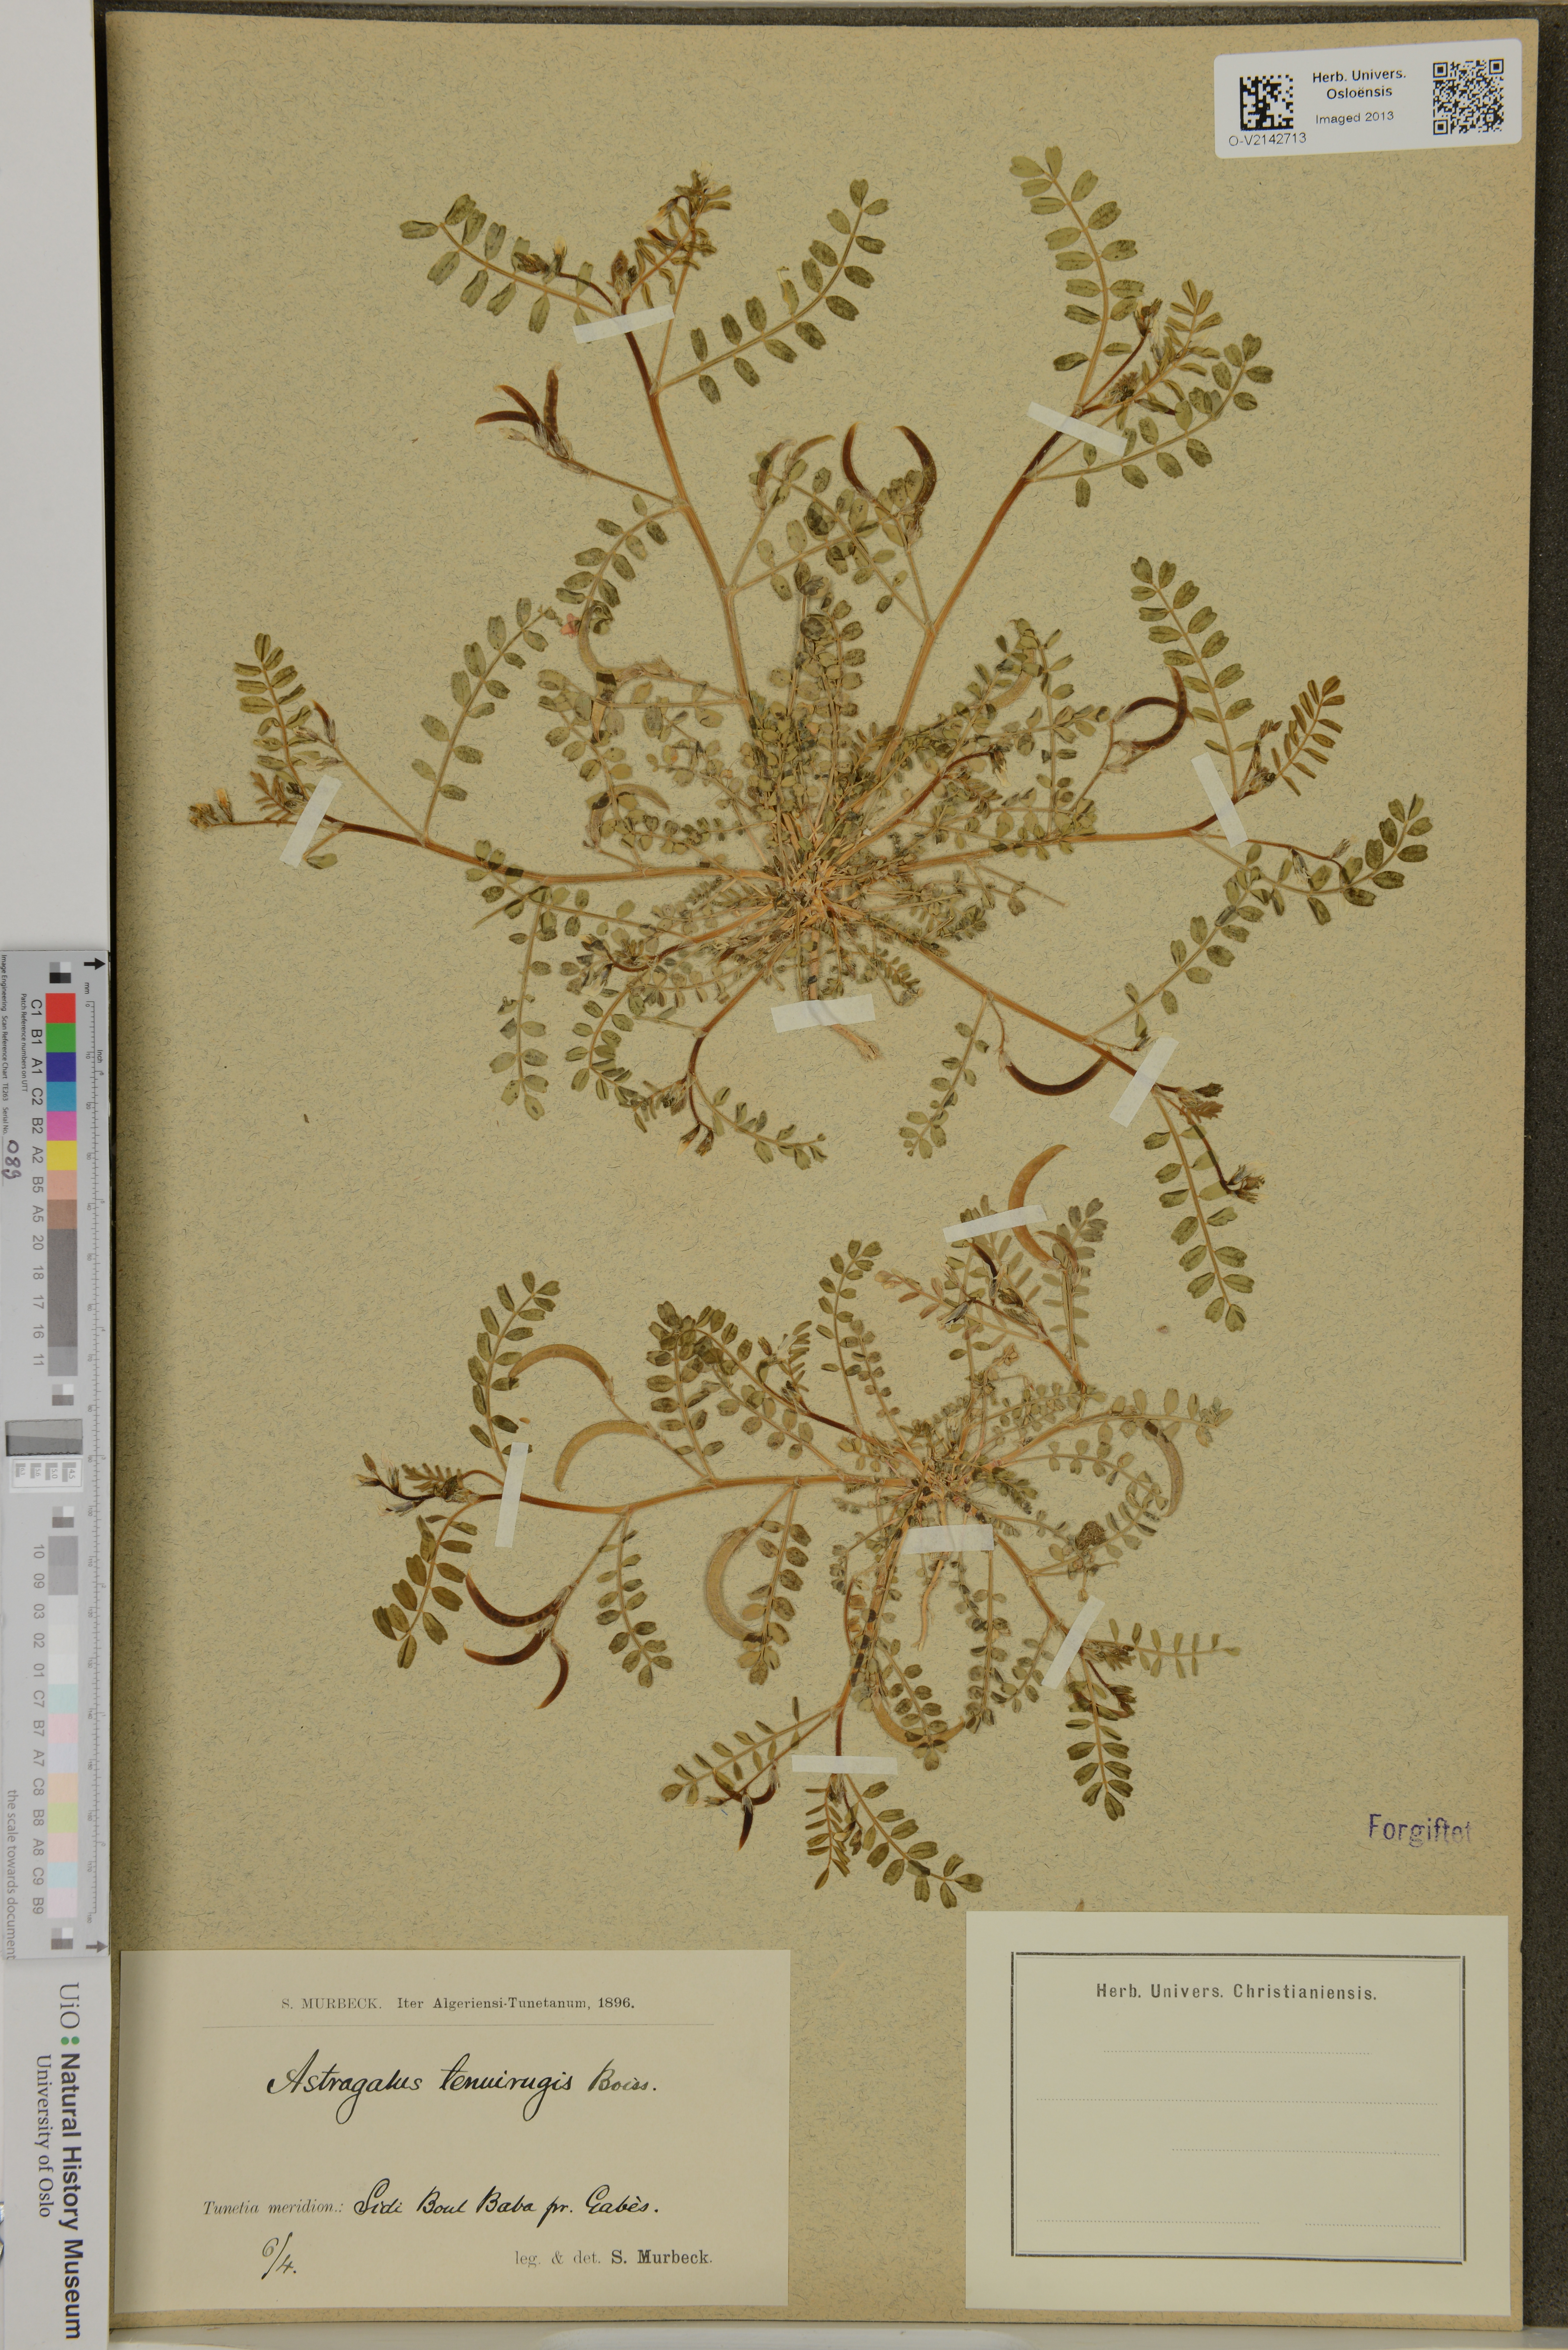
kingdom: Plantae
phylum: Tracheophyta
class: Magnoliopsida
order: Fabales
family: Fabaceae
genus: Astragalus
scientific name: Astragalus crenatus
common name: Milk vetch
